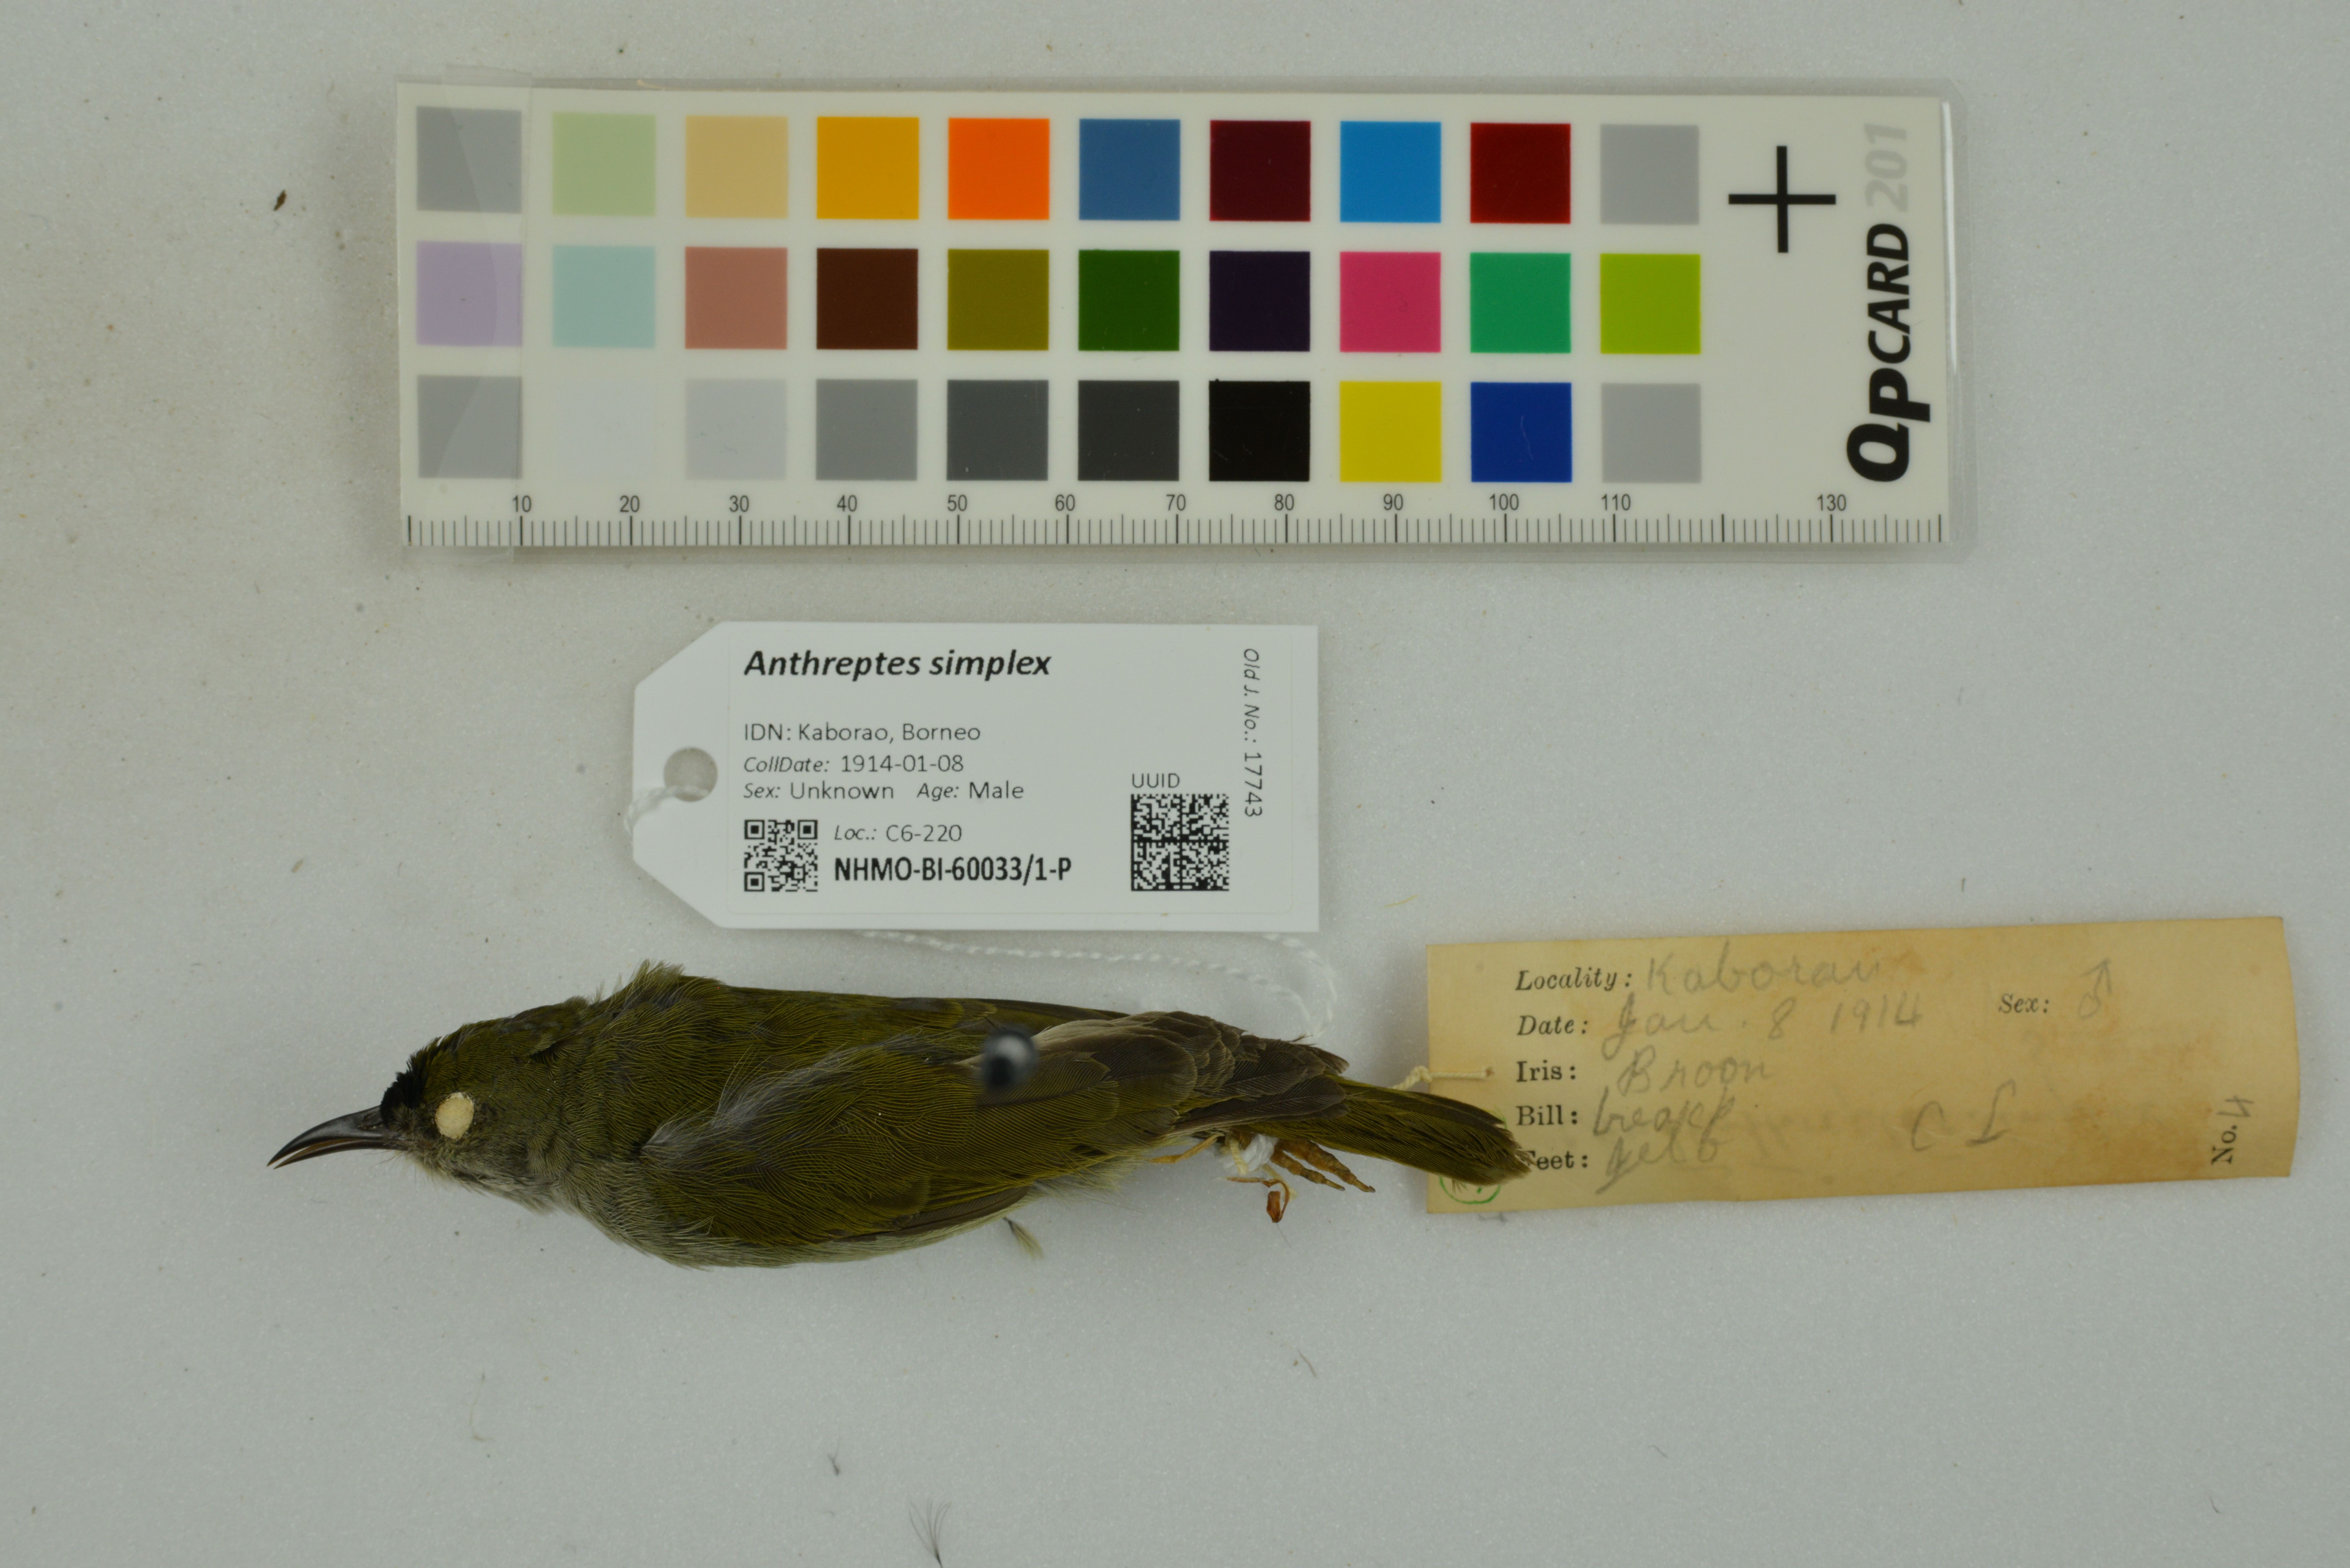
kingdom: Animalia
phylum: Chordata
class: Aves
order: Passeriformes
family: Nectariniidae
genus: Anthreptes
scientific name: Anthreptes simplex
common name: Plain sunbird
